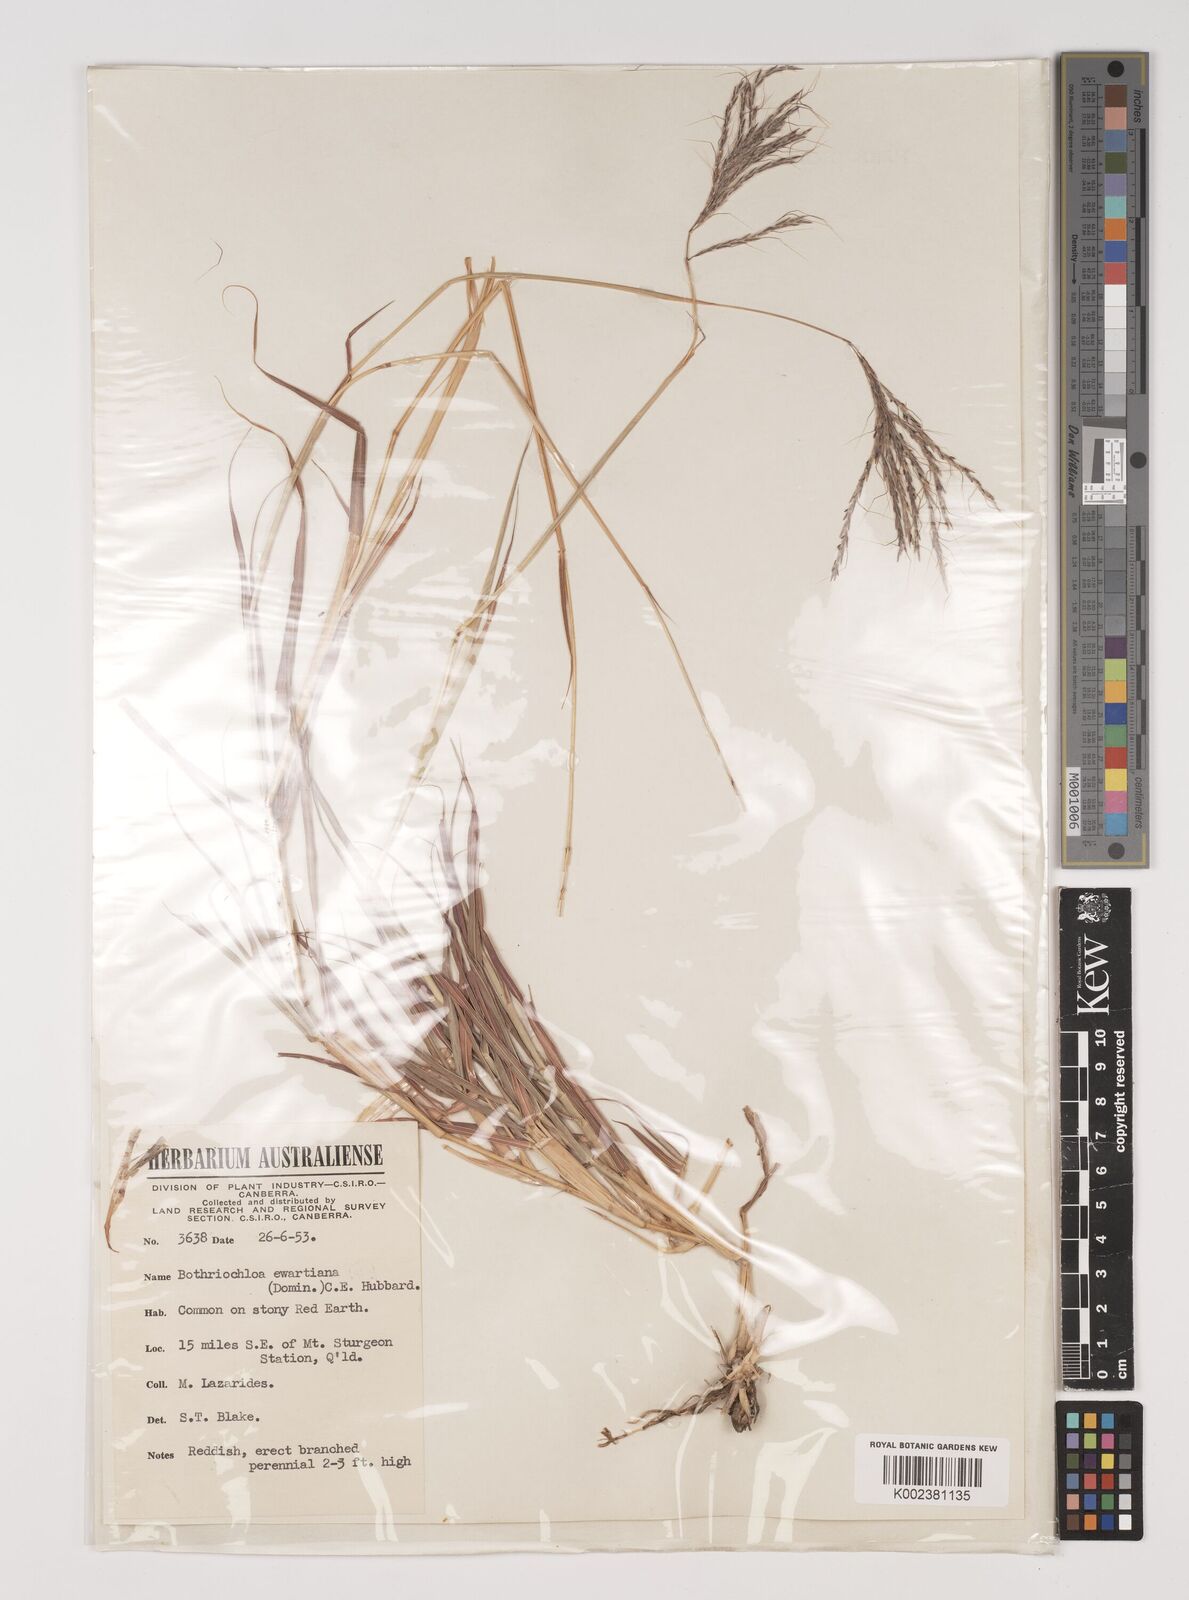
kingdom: Plantae
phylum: Tracheophyta
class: Liliopsida
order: Poales
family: Poaceae
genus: Bothriochloa
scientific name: Bothriochloa ewartiana
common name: Desert-bluegrass
